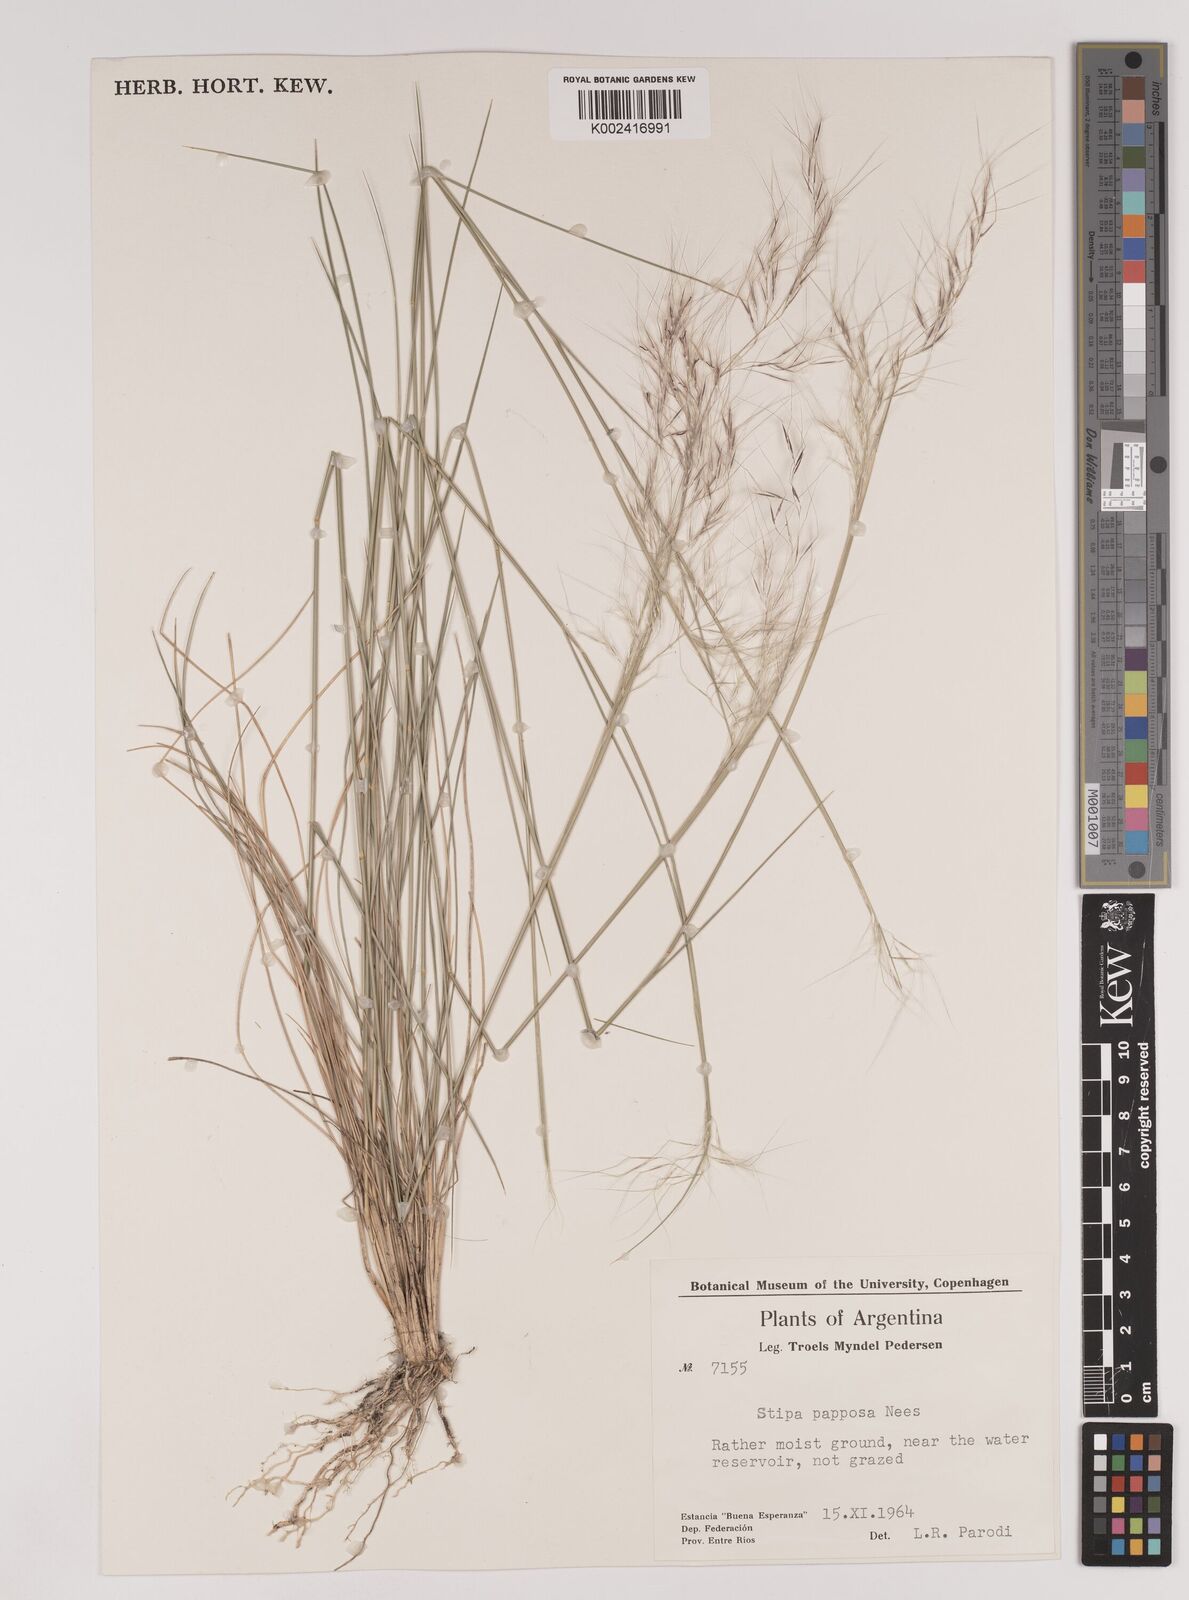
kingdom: Plantae
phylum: Tracheophyta
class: Liliopsida
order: Poales
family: Poaceae
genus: Jarava
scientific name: Jarava plumosa
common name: South american rice grass
